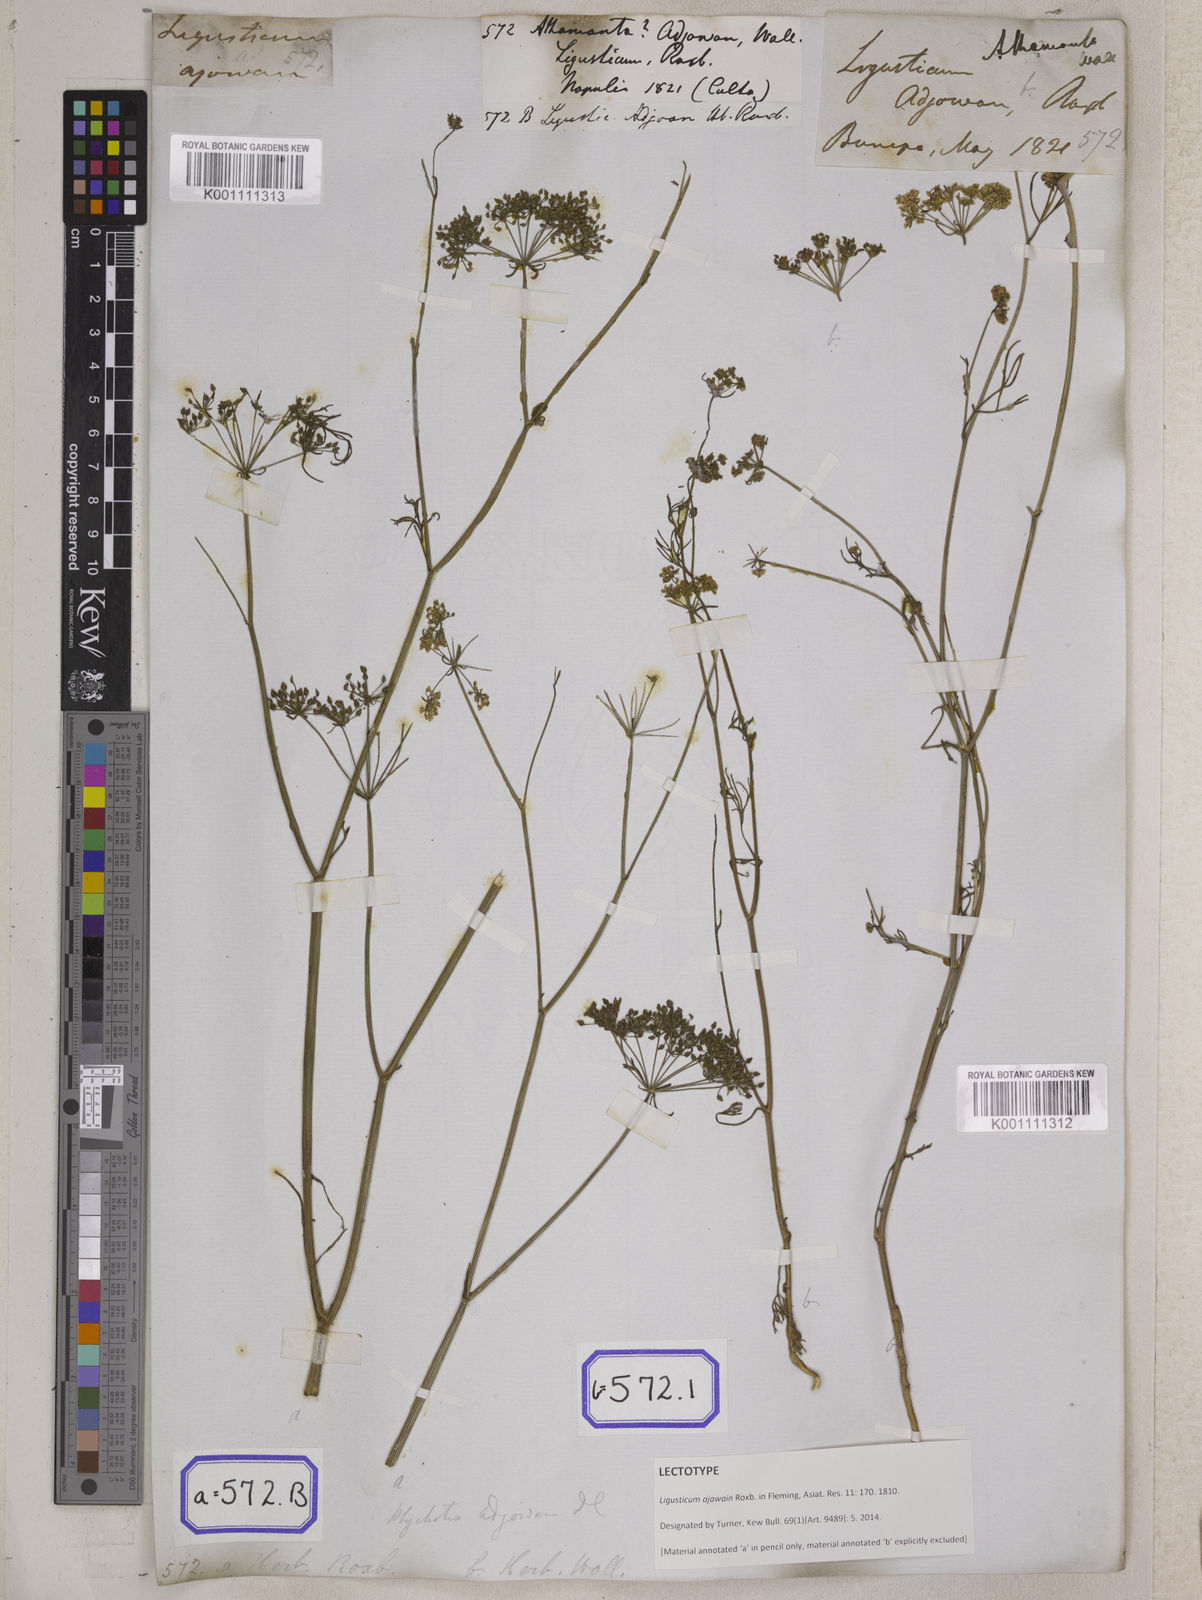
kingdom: Plantae
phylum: Tracheophyta
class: Magnoliopsida
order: Apiales
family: Apiaceae
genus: Trachyspermum
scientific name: Trachyspermum ammi
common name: Ajowan
